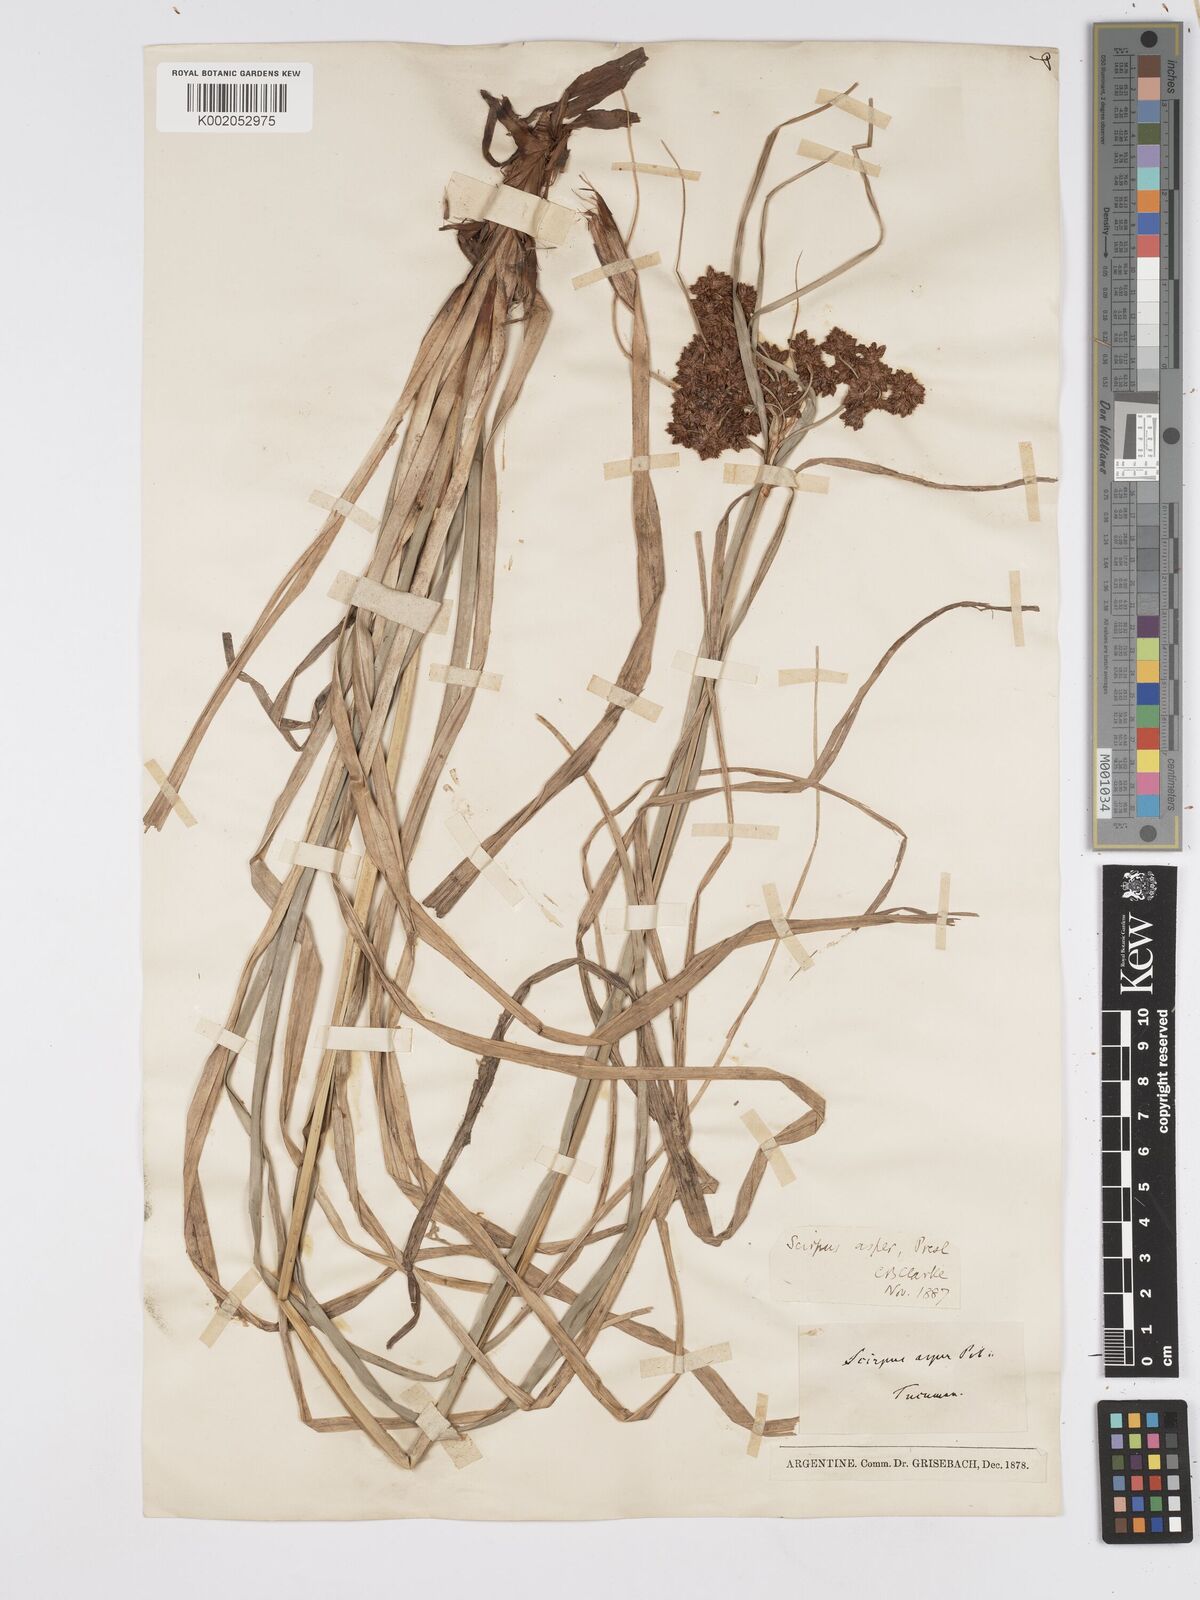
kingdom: Plantae
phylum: Tracheophyta
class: Liliopsida
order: Poales
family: Cyperaceae
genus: Rhodoscirpus
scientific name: Rhodoscirpus asper
